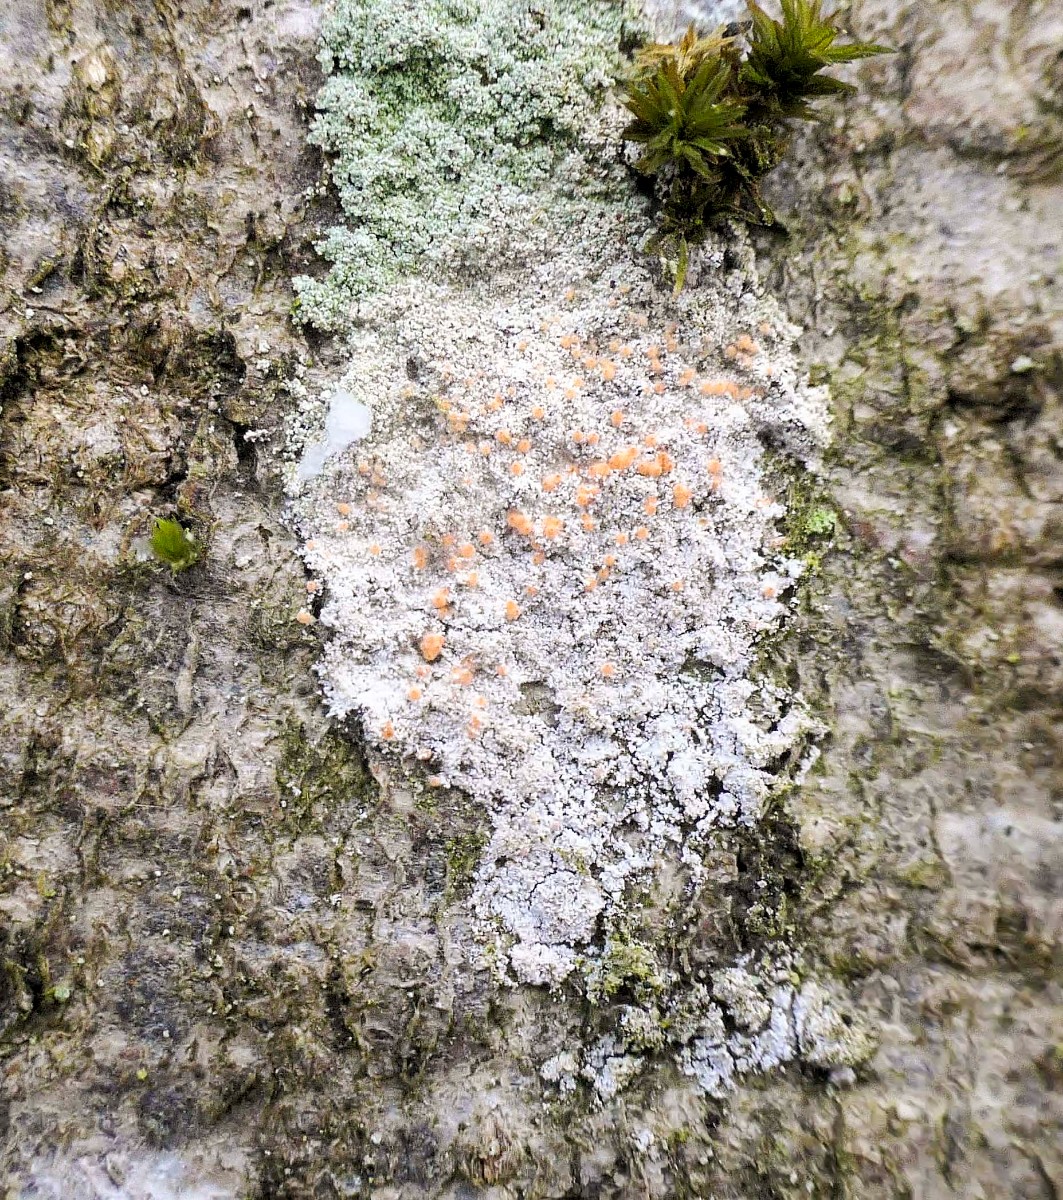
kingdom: Fungi
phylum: Ascomycota
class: Sordariomycetes
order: Hypocreales
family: Bionectriaceae
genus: Paranectria
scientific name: Paranectria oropensis
